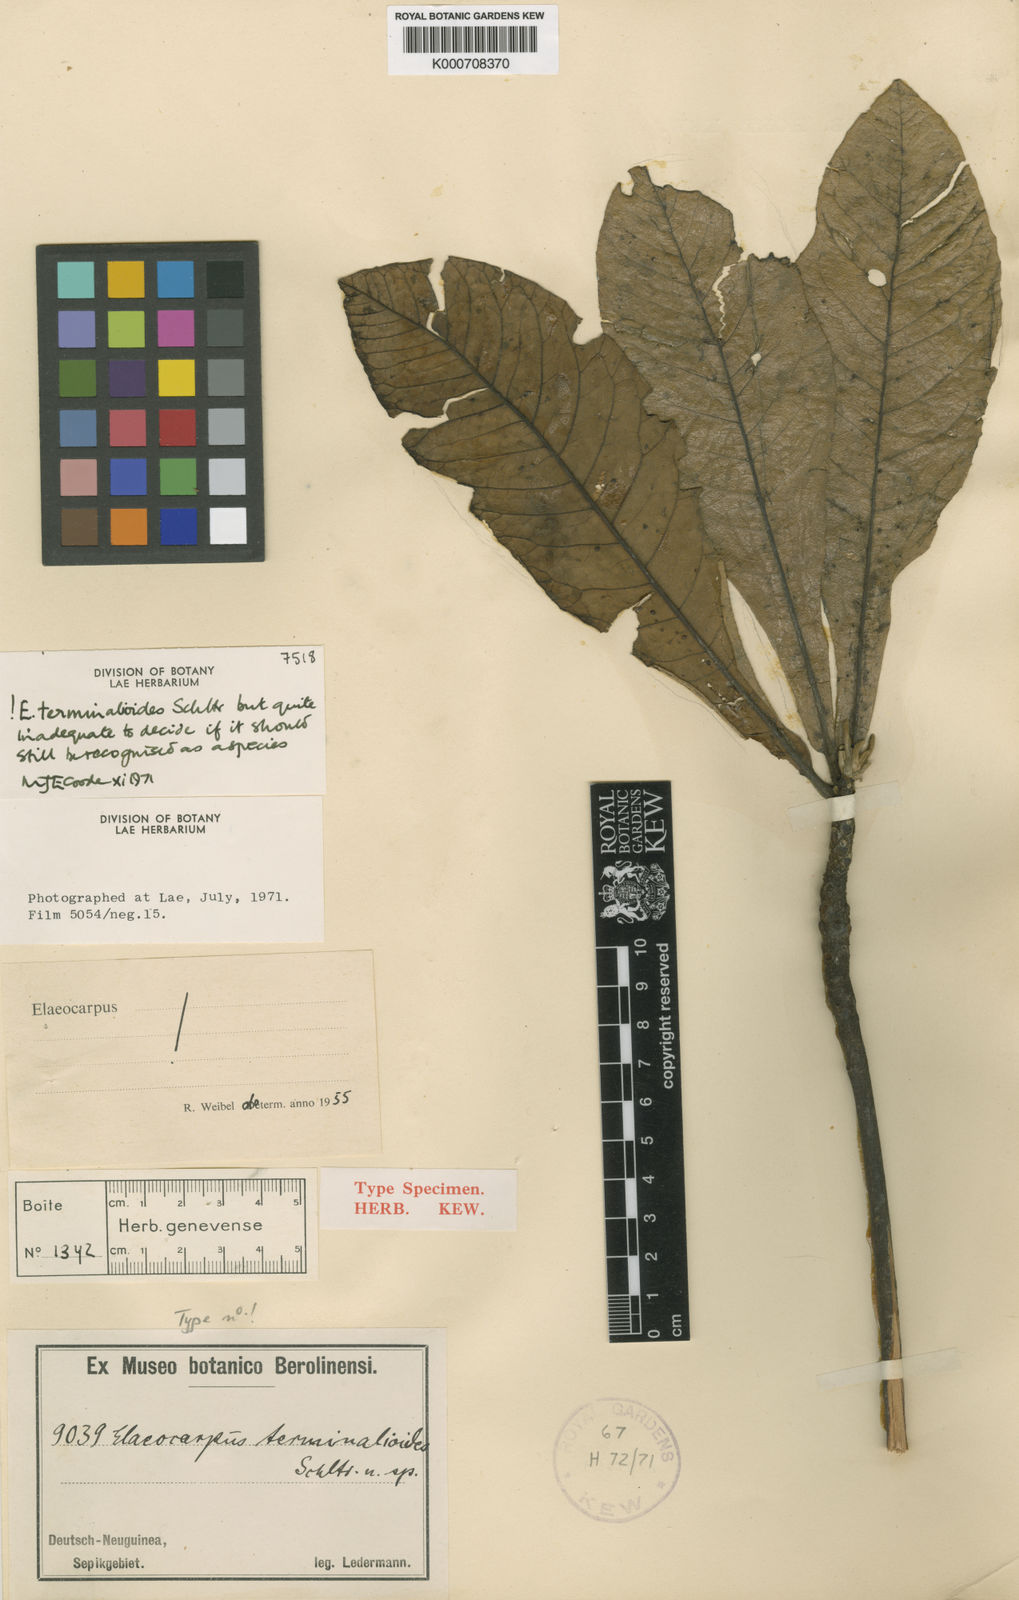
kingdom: Plantae
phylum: Tracheophyta
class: Magnoliopsida
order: Oxalidales
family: Elaeocarpaceae
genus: Elaeocarpus
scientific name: Elaeocarpus terminalioides
